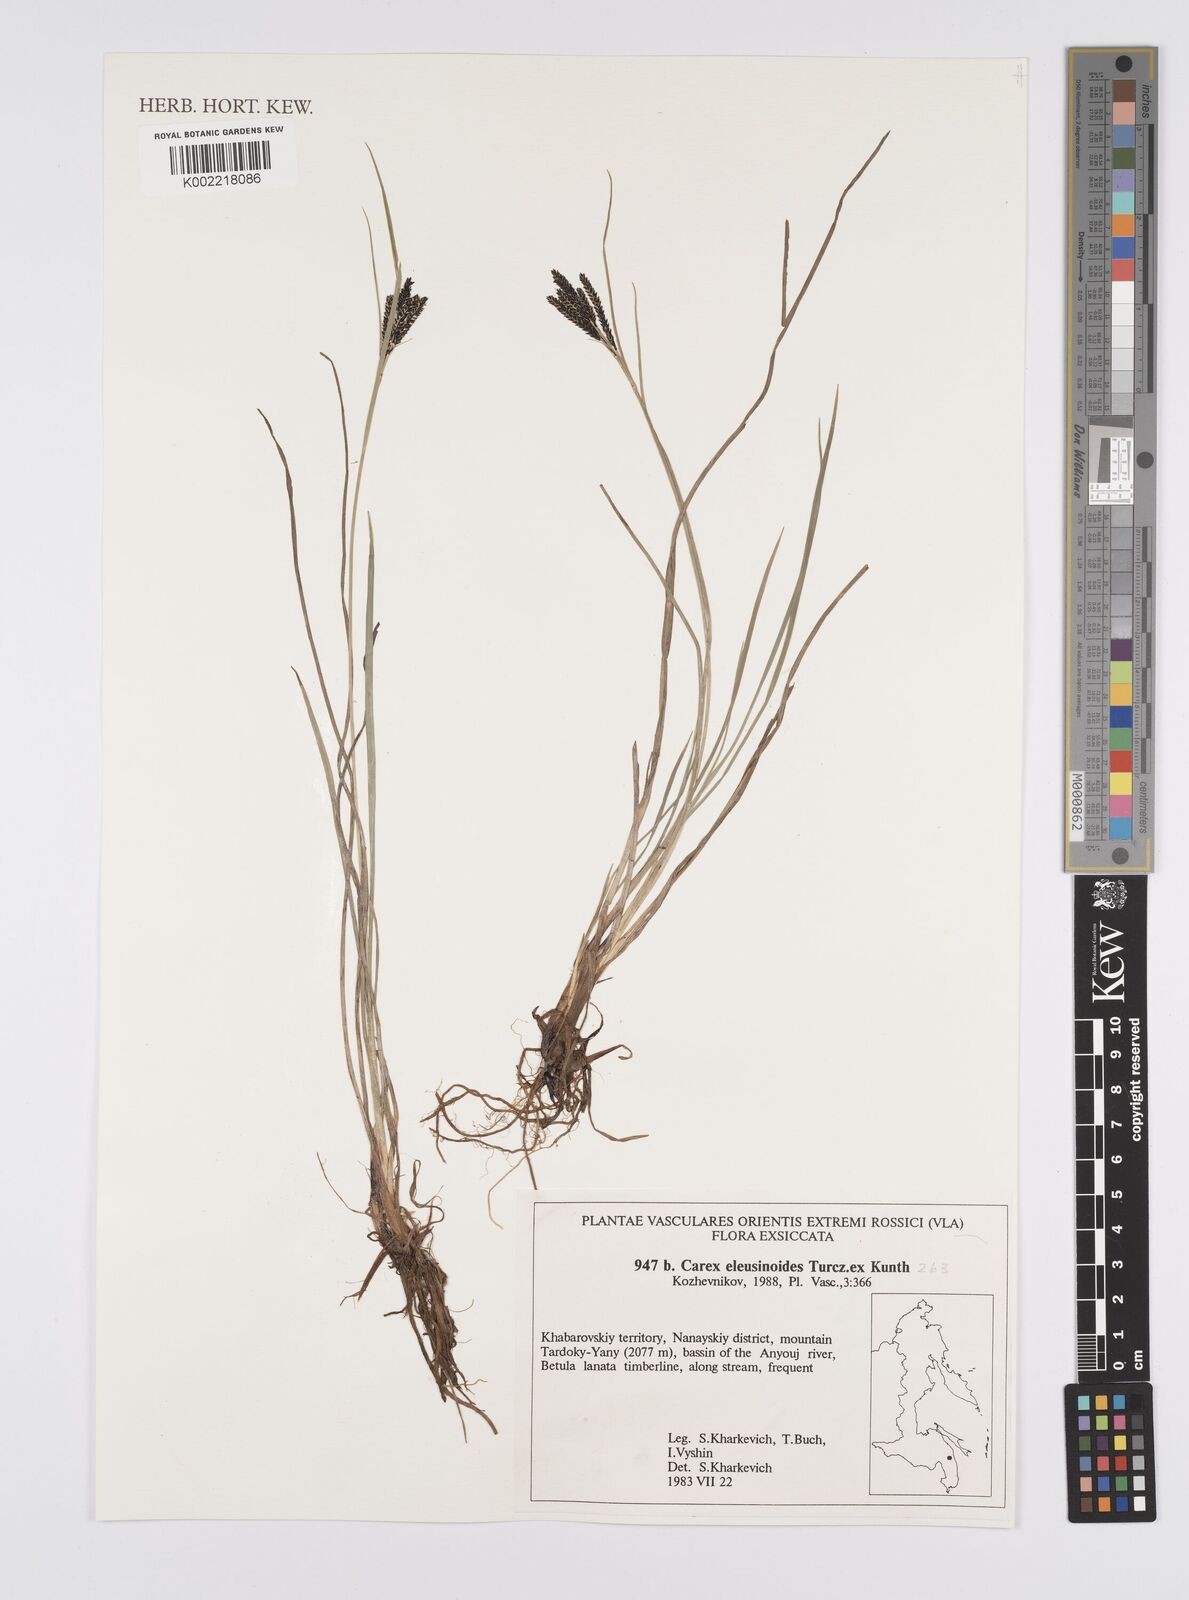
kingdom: Plantae
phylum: Tracheophyta
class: Liliopsida
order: Poales
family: Cyperaceae
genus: Carex
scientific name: Carex dacica
